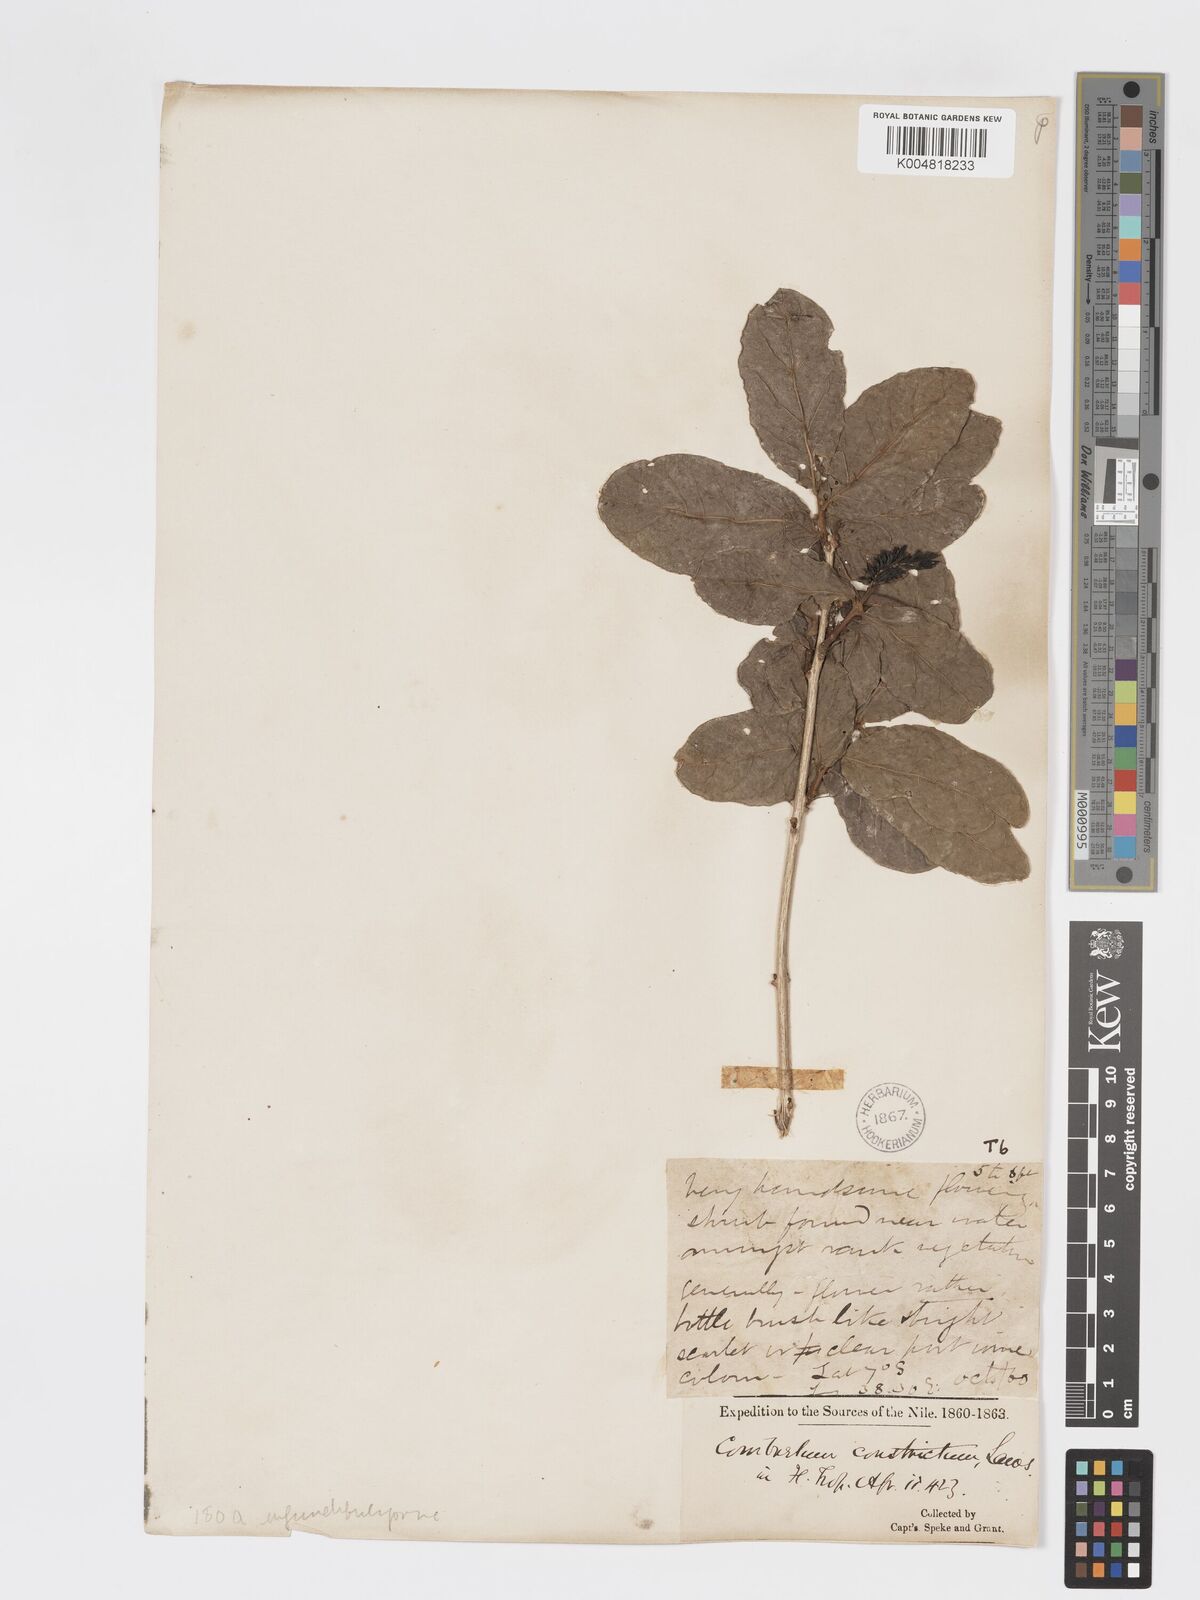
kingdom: Plantae
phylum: Tracheophyta
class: Magnoliopsida
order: Myrtales
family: Combretaceae
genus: Combretum
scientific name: Combretum constrictum
